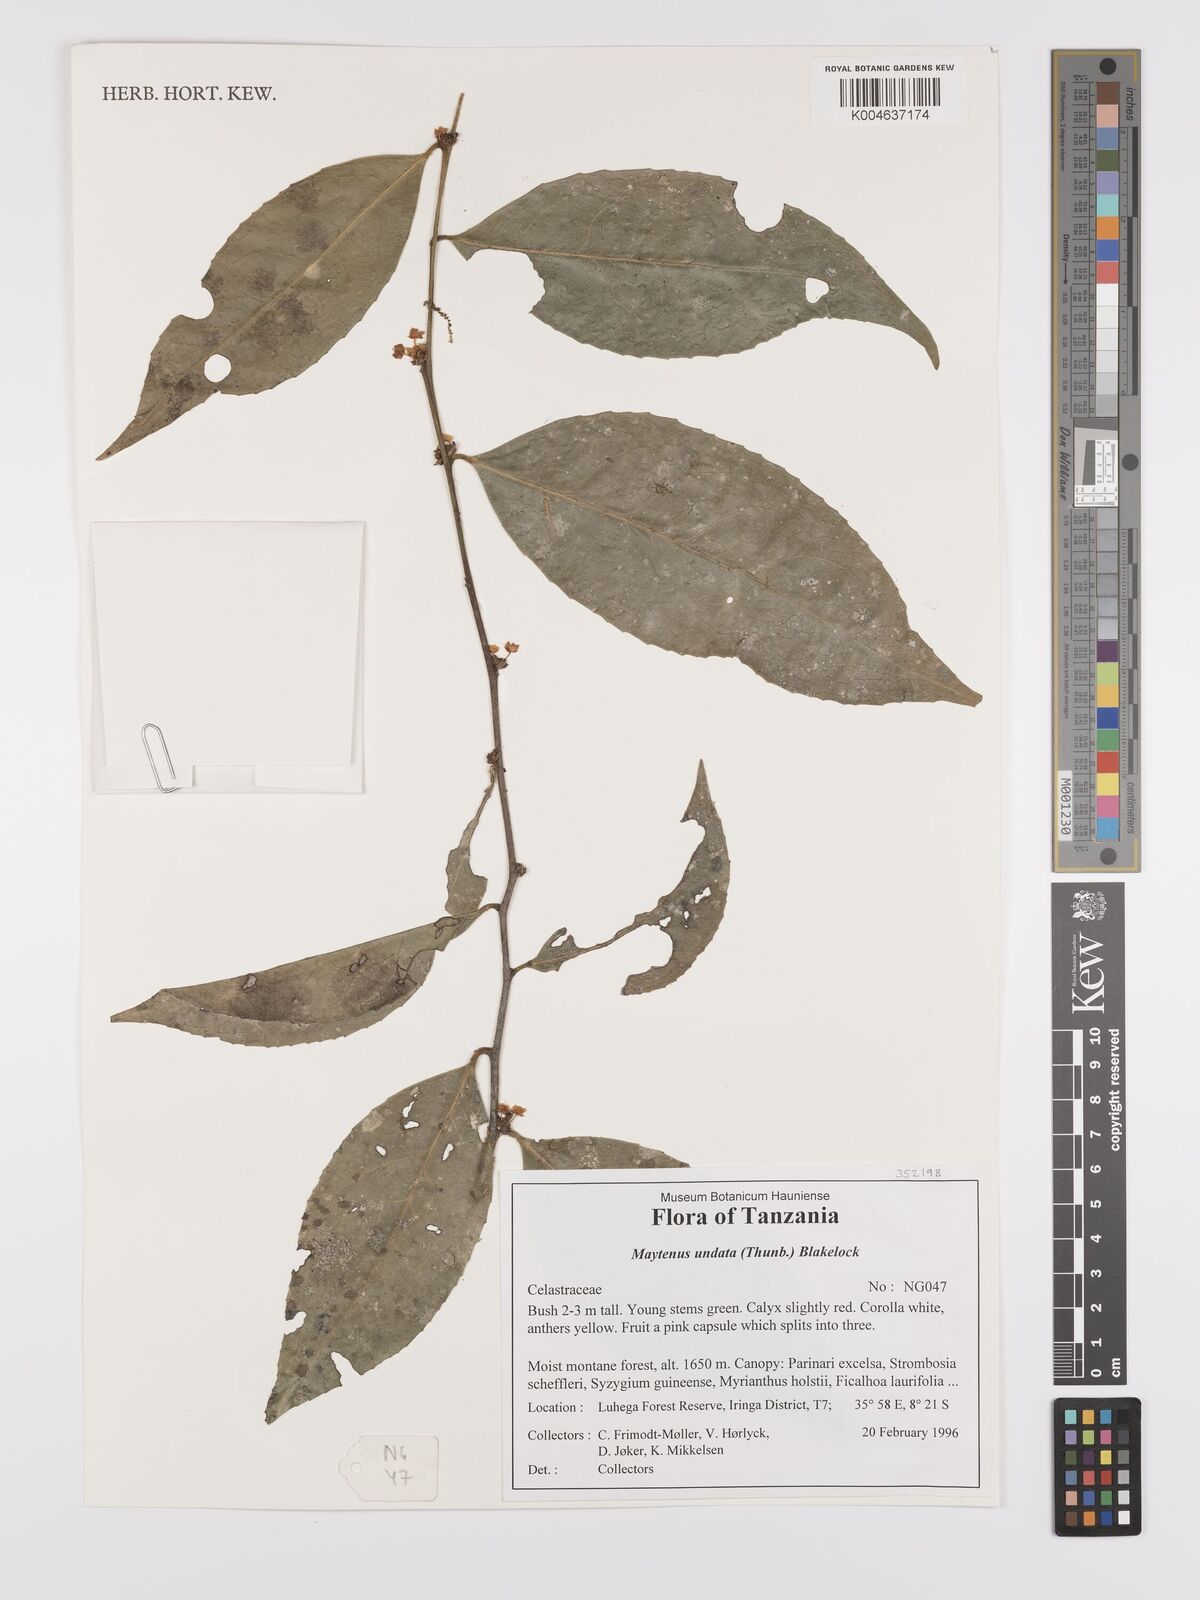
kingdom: Plantae
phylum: Tracheophyta
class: Magnoliopsida
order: Celastrales
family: Celastraceae
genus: Gymnosporia
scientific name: Gymnosporia undata
